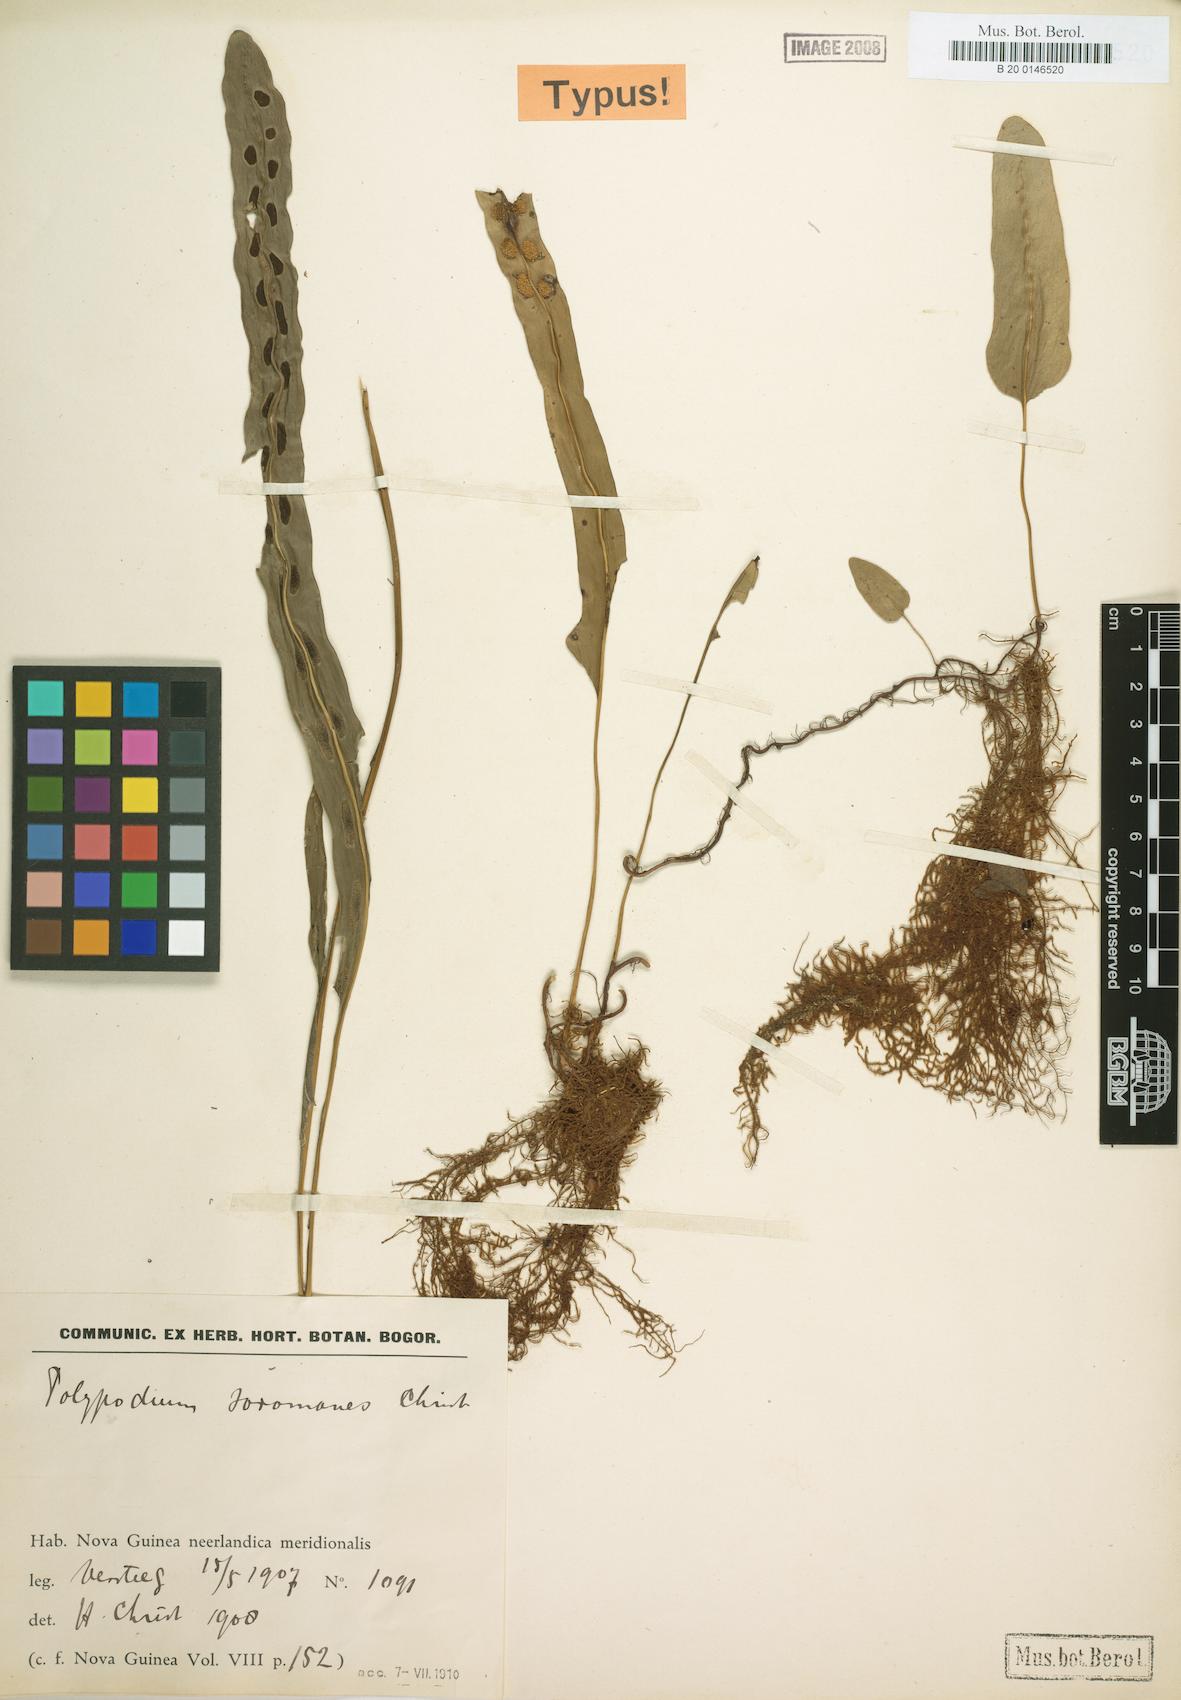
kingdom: Plantae
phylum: Tracheophyta
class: Polypodiopsida
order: Polypodiales
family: Polypodiaceae
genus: Microsorum
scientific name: Microsorum papuanum
